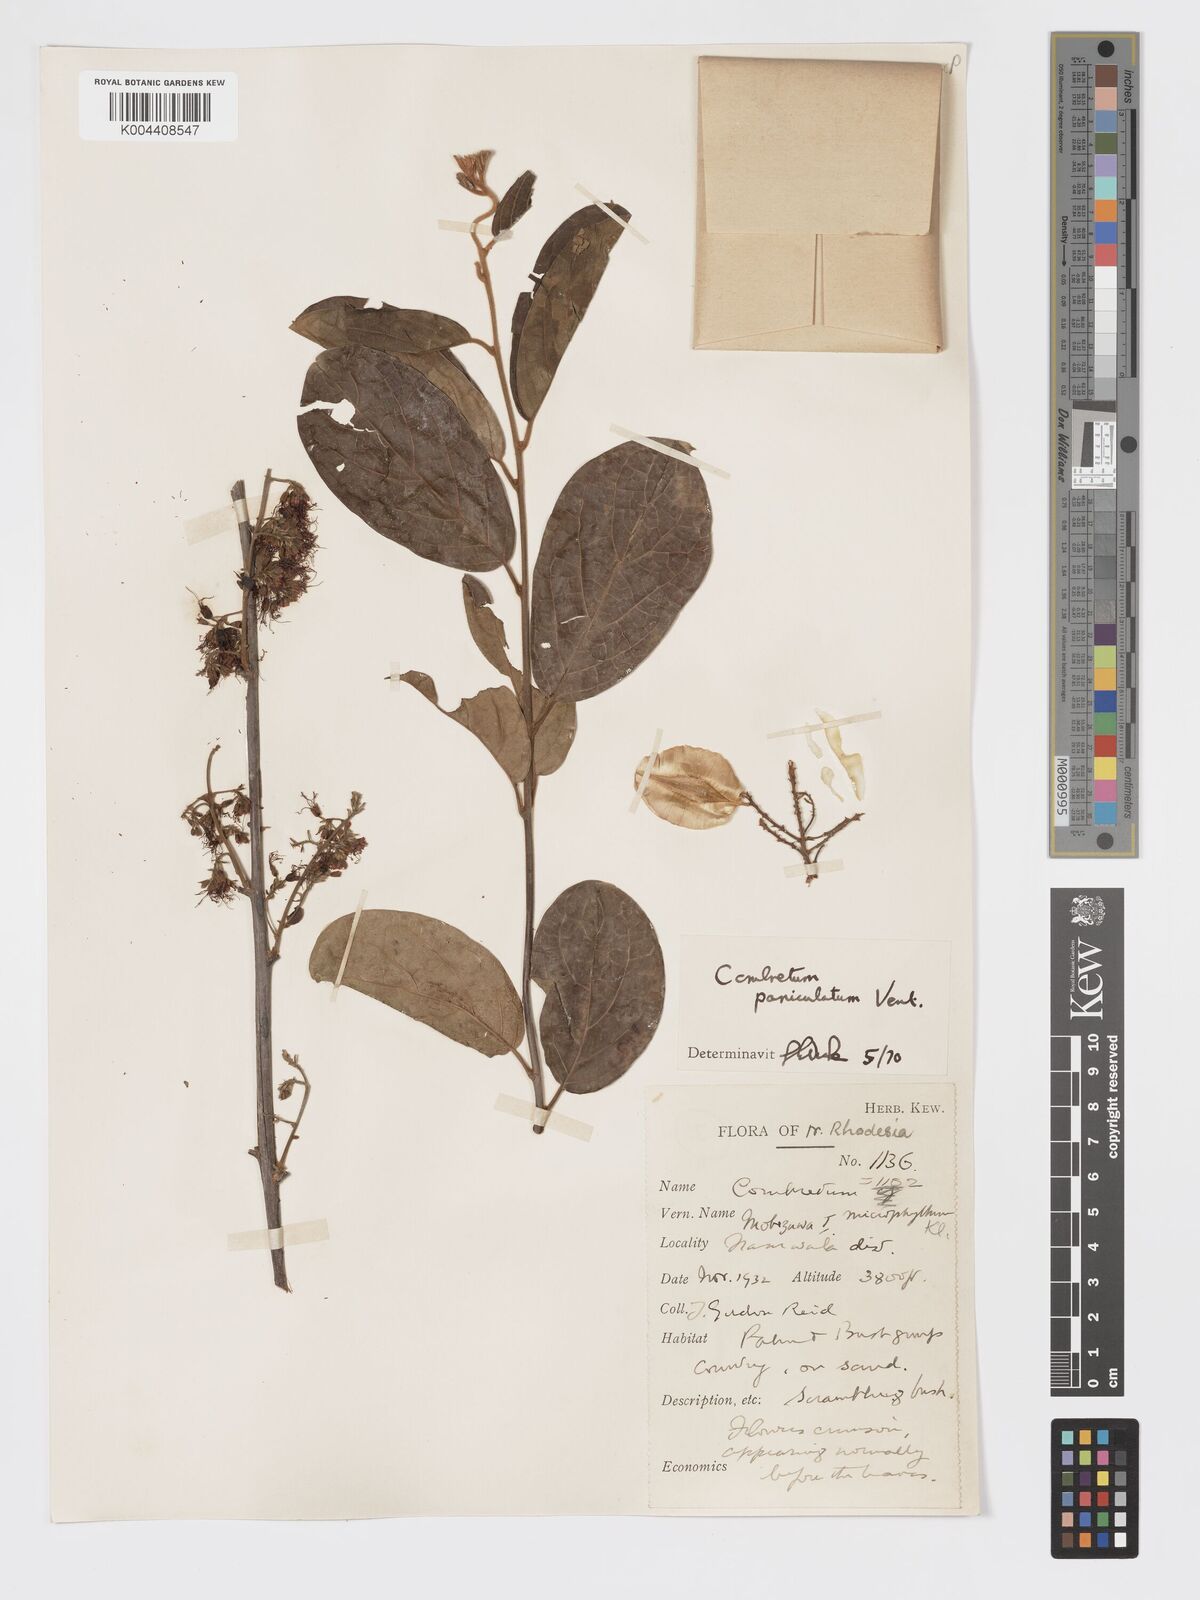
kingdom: Plantae
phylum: Tracheophyta
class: Magnoliopsida
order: Myrtales
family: Combretaceae
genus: Combretum
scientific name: Combretum paniculatum
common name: Fire vine
